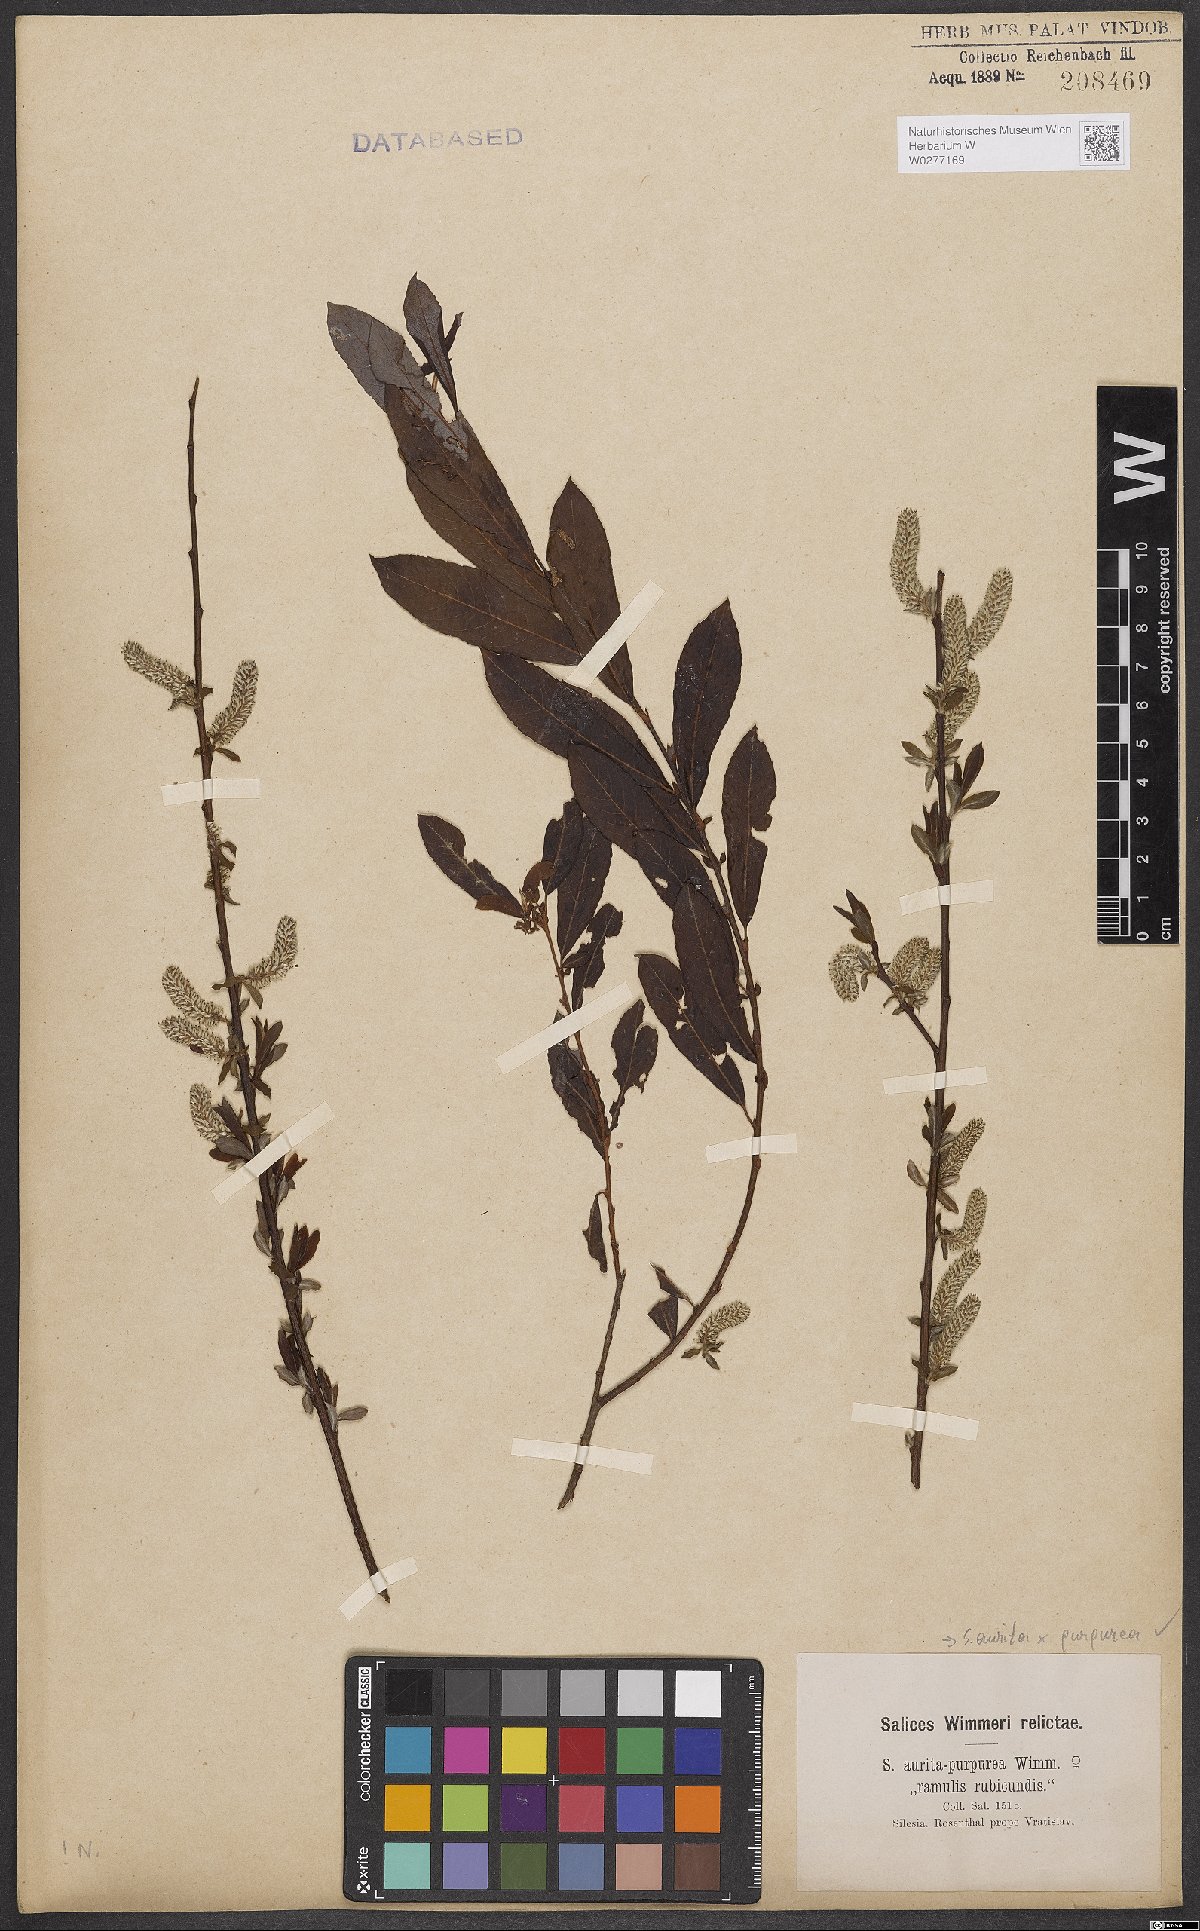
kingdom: Plantae
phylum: Tracheophyta
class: Magnoliopsida
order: Malpighiales
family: Salicaceae
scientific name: Salicaceae
